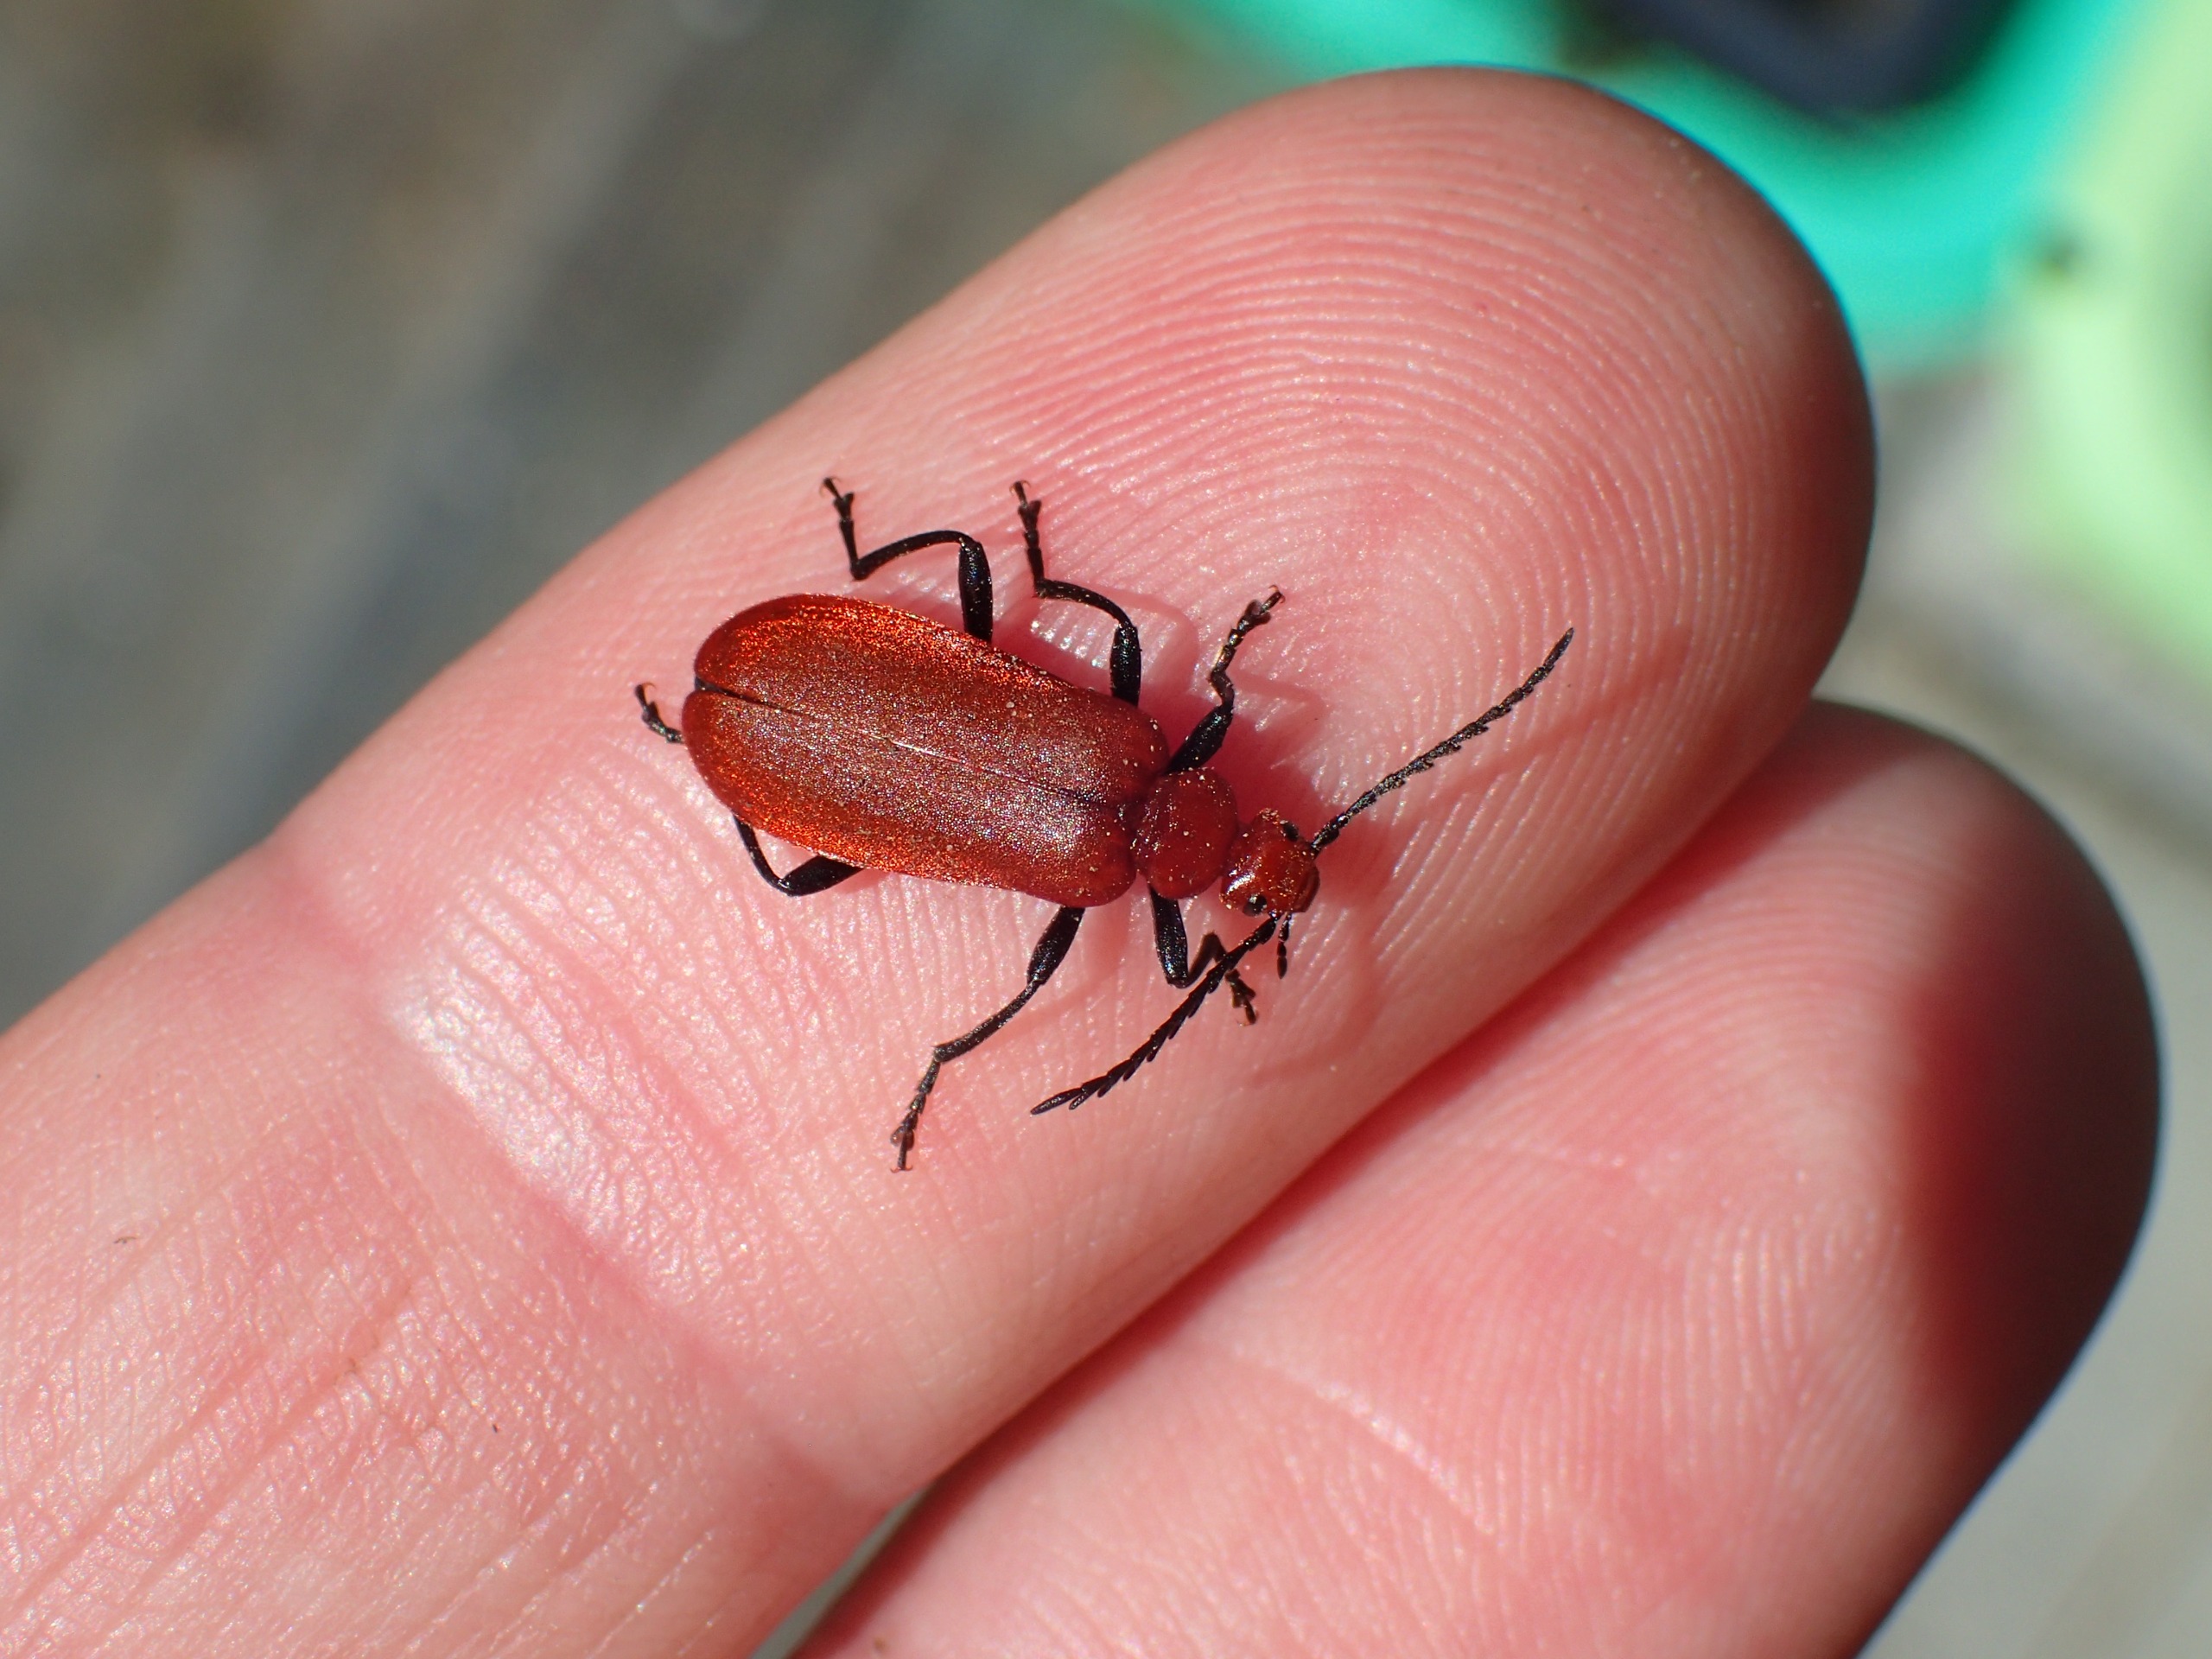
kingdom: Animalia
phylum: Arthropoda
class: Insecta
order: Coleoptera
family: Pyrochroidae
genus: Pyrochroa
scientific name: Pyrochroa serraticornis
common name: Rødhovedet kardinalbille
